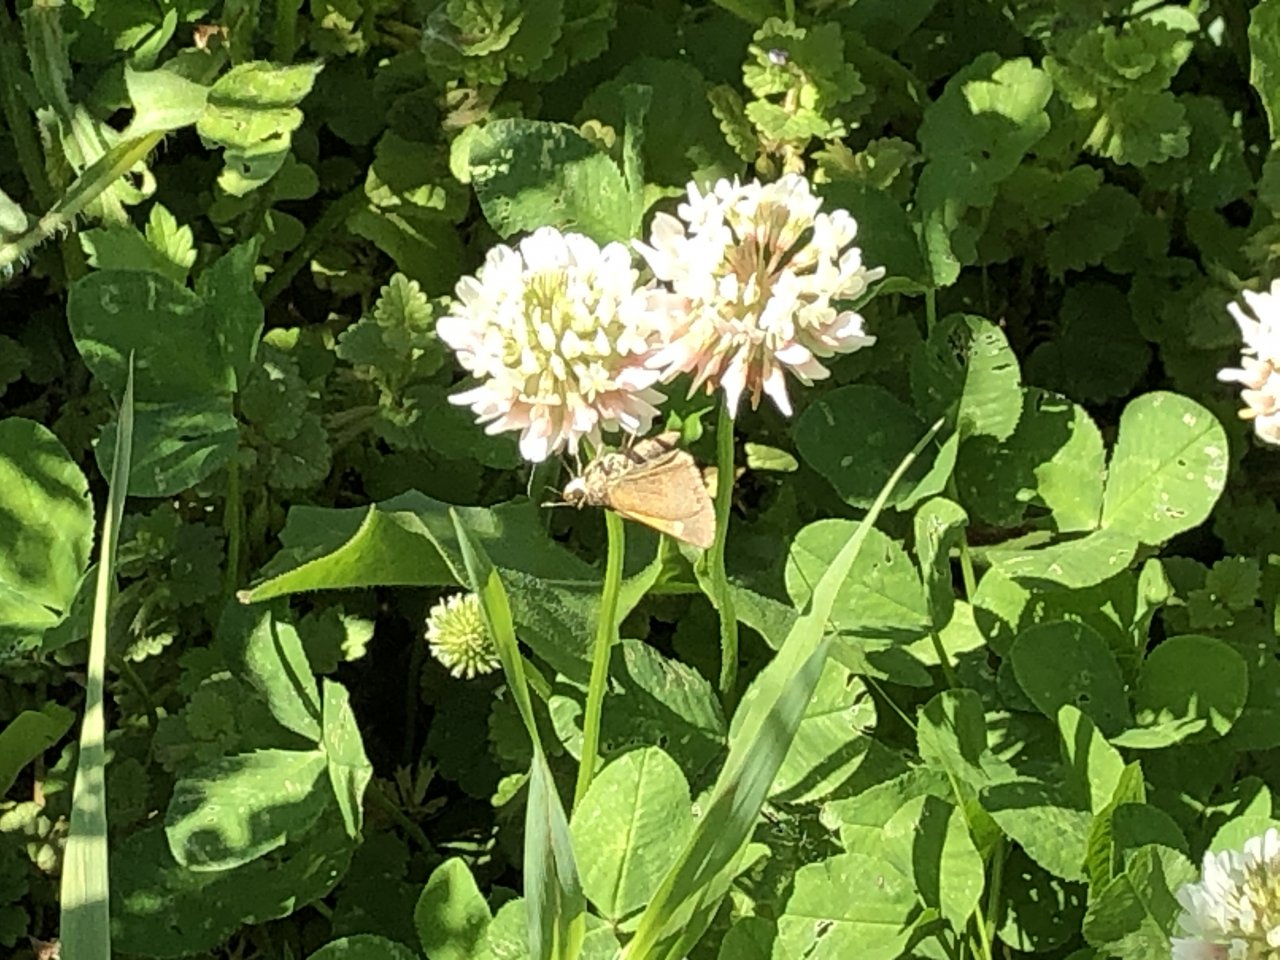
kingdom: Animalia
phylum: Arthropoda
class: Insecta
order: Lepidoptera
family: Hesperiidae
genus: Polites
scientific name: Polites themistocles
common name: Tawny-edged Skipper
